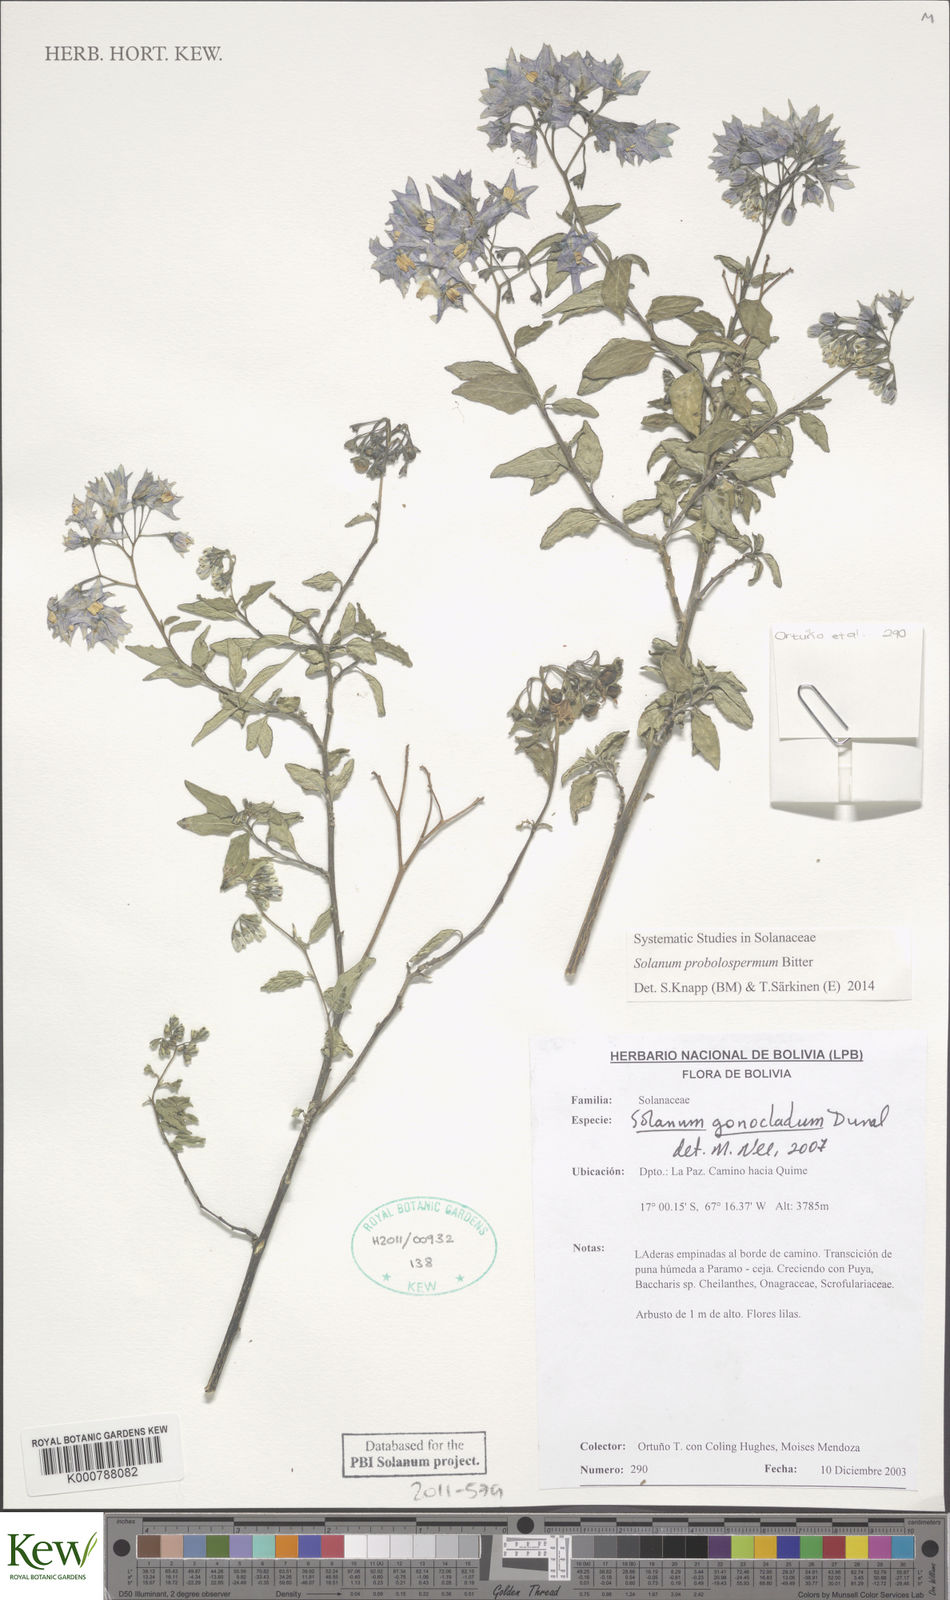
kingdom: Plantae
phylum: Tracheophyta
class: Magnoliopsida
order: Solanales
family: Solanaceae
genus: Solanum
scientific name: Solanum probolospermum
